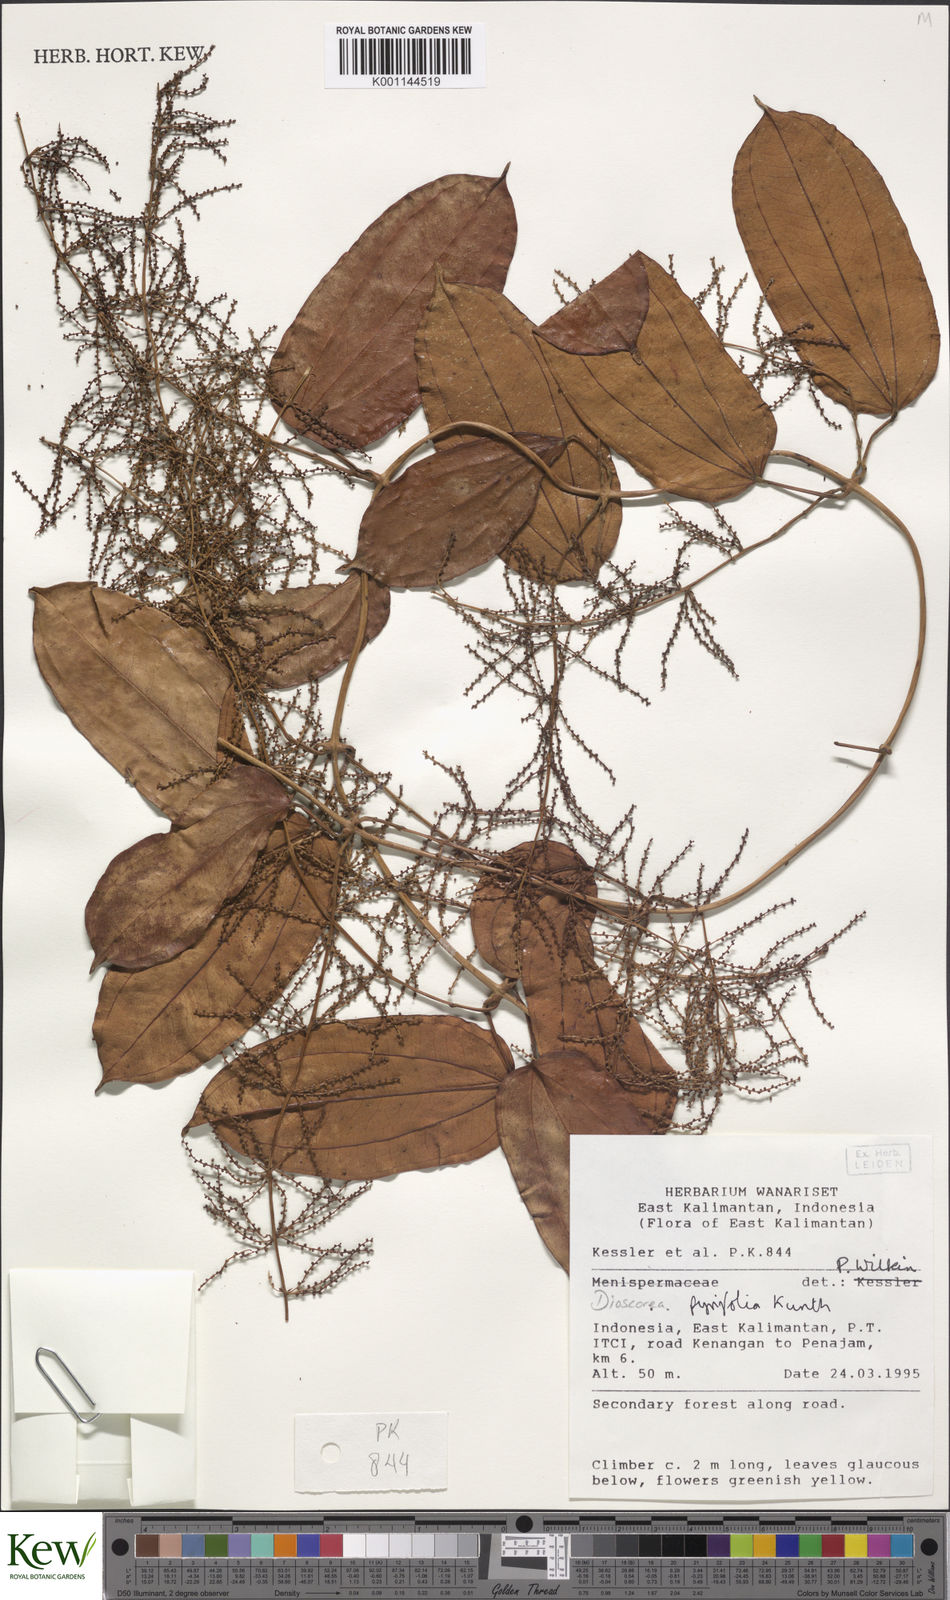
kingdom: Plantae
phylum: Tracheophyta
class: Liliopsida
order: Dioscoreales
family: Dioscoreaceae
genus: Dioscorea
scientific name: Dioscorea pyrifolia
